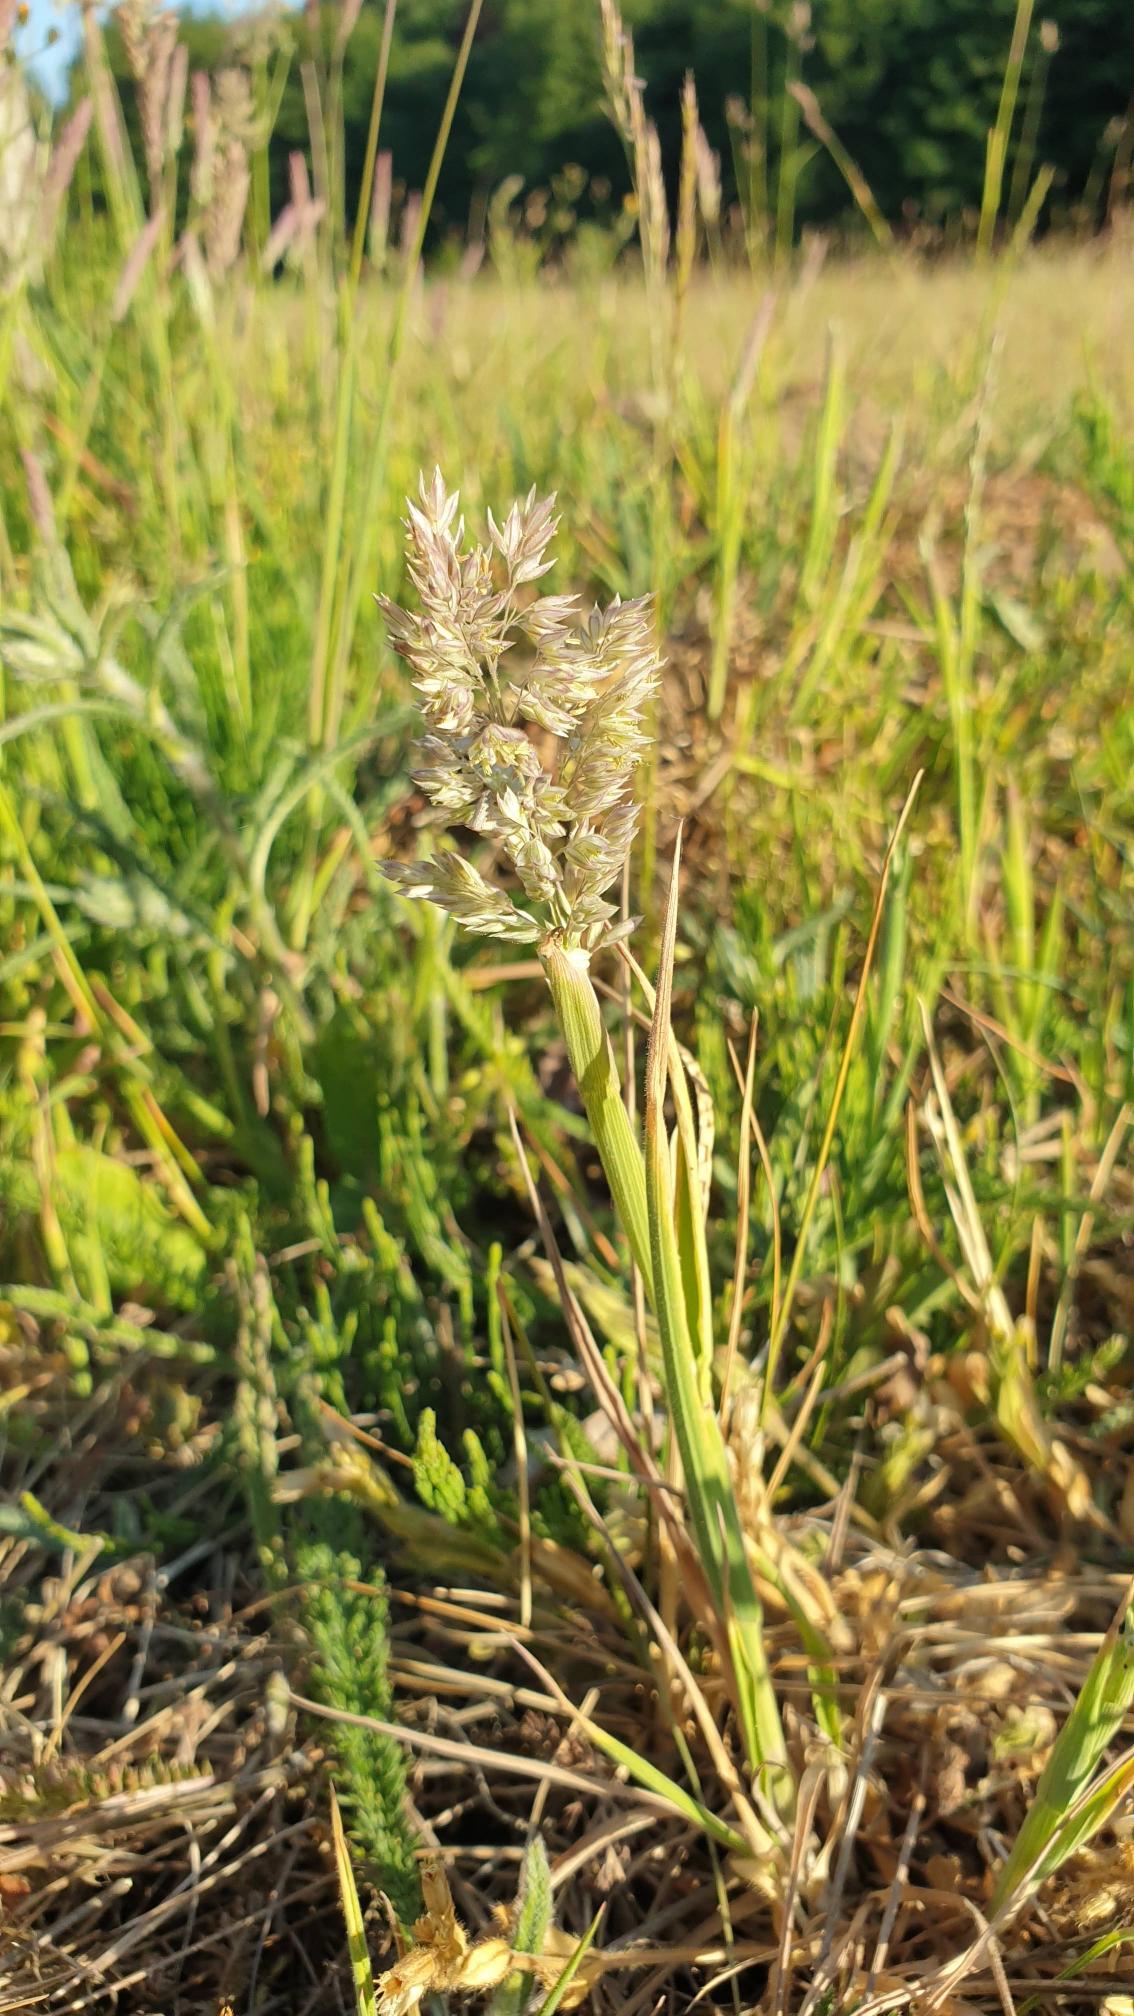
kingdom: Plantae
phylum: Tracheophyta
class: Liliopsida
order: Poales
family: Poaceae
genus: Holcus
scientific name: Holcus lanatus
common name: Fløjlsgræs
